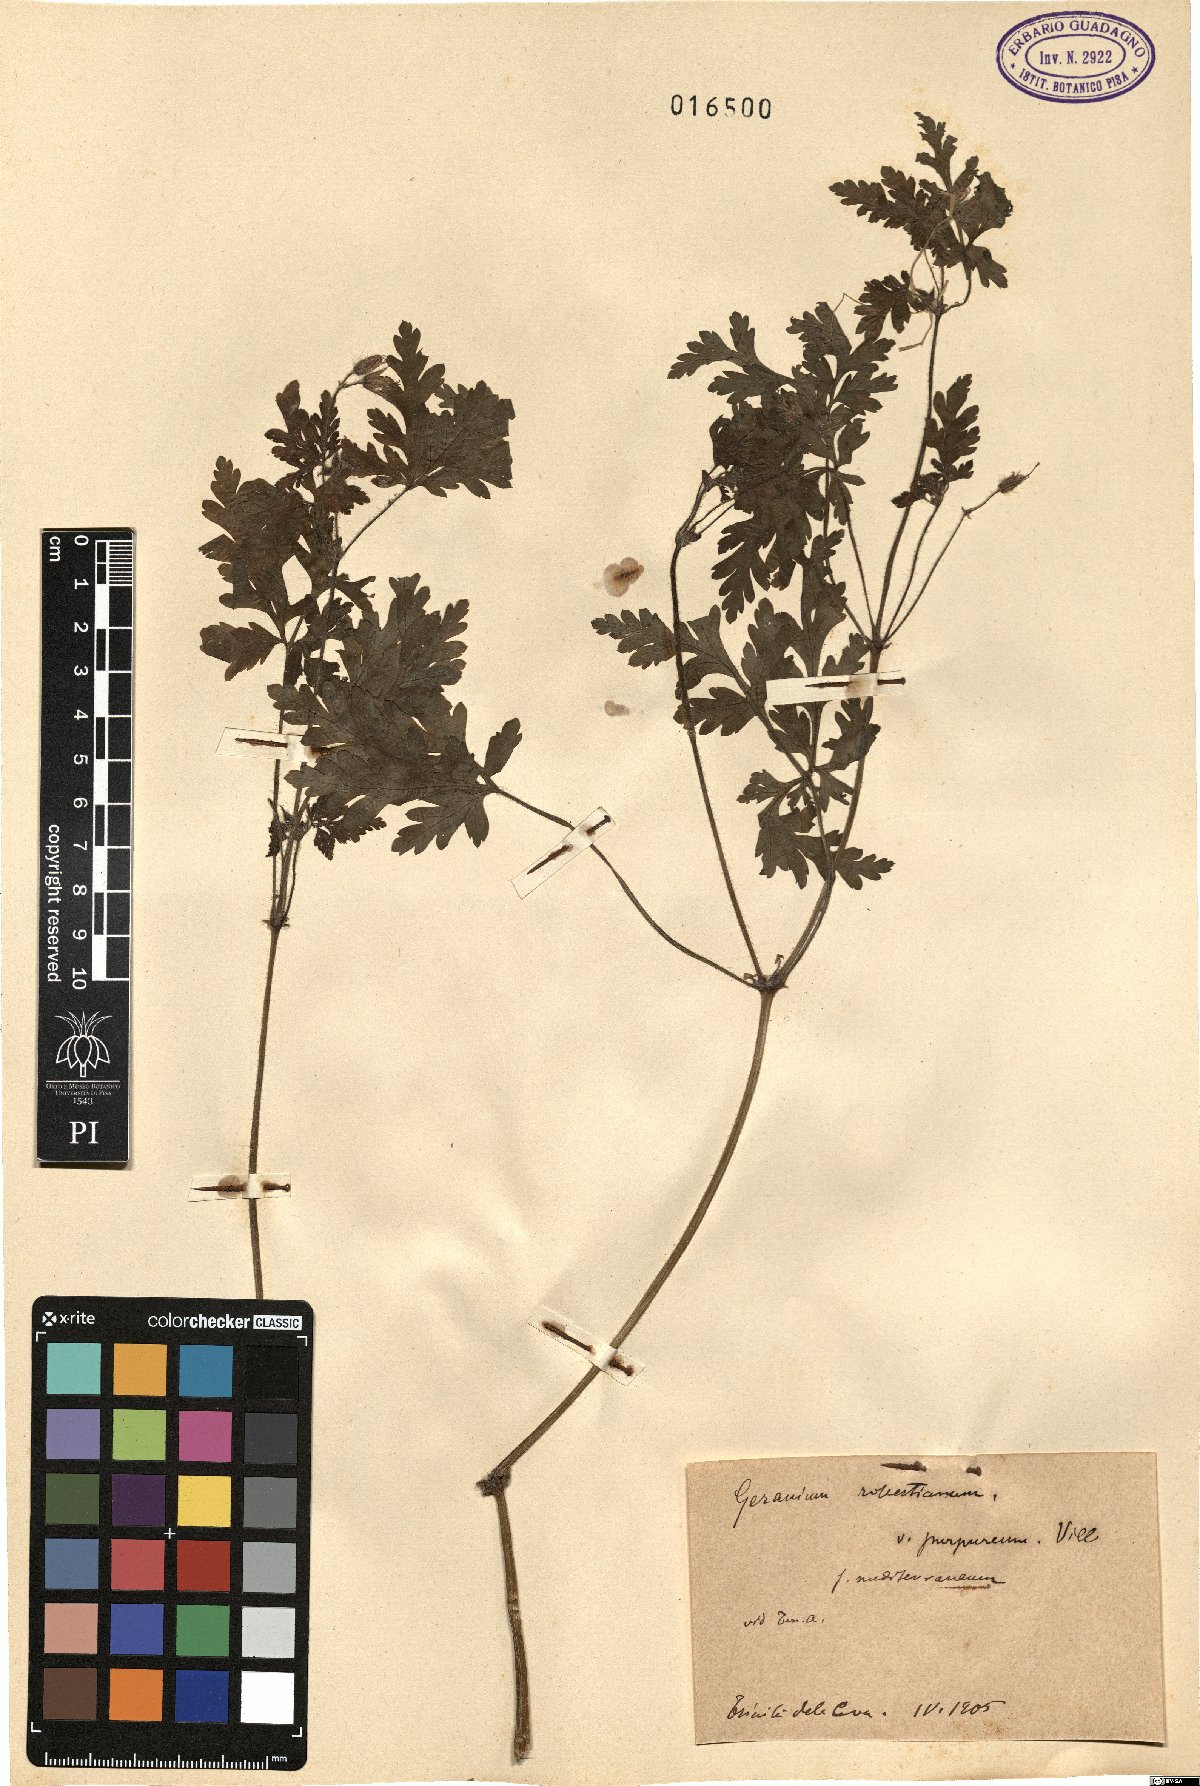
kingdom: Plantae
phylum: Tracheophyta
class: Magnoliopsida
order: Geraniales
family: Geraniaceae
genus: Geranium
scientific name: Geranium robertianum
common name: Herb-robert
